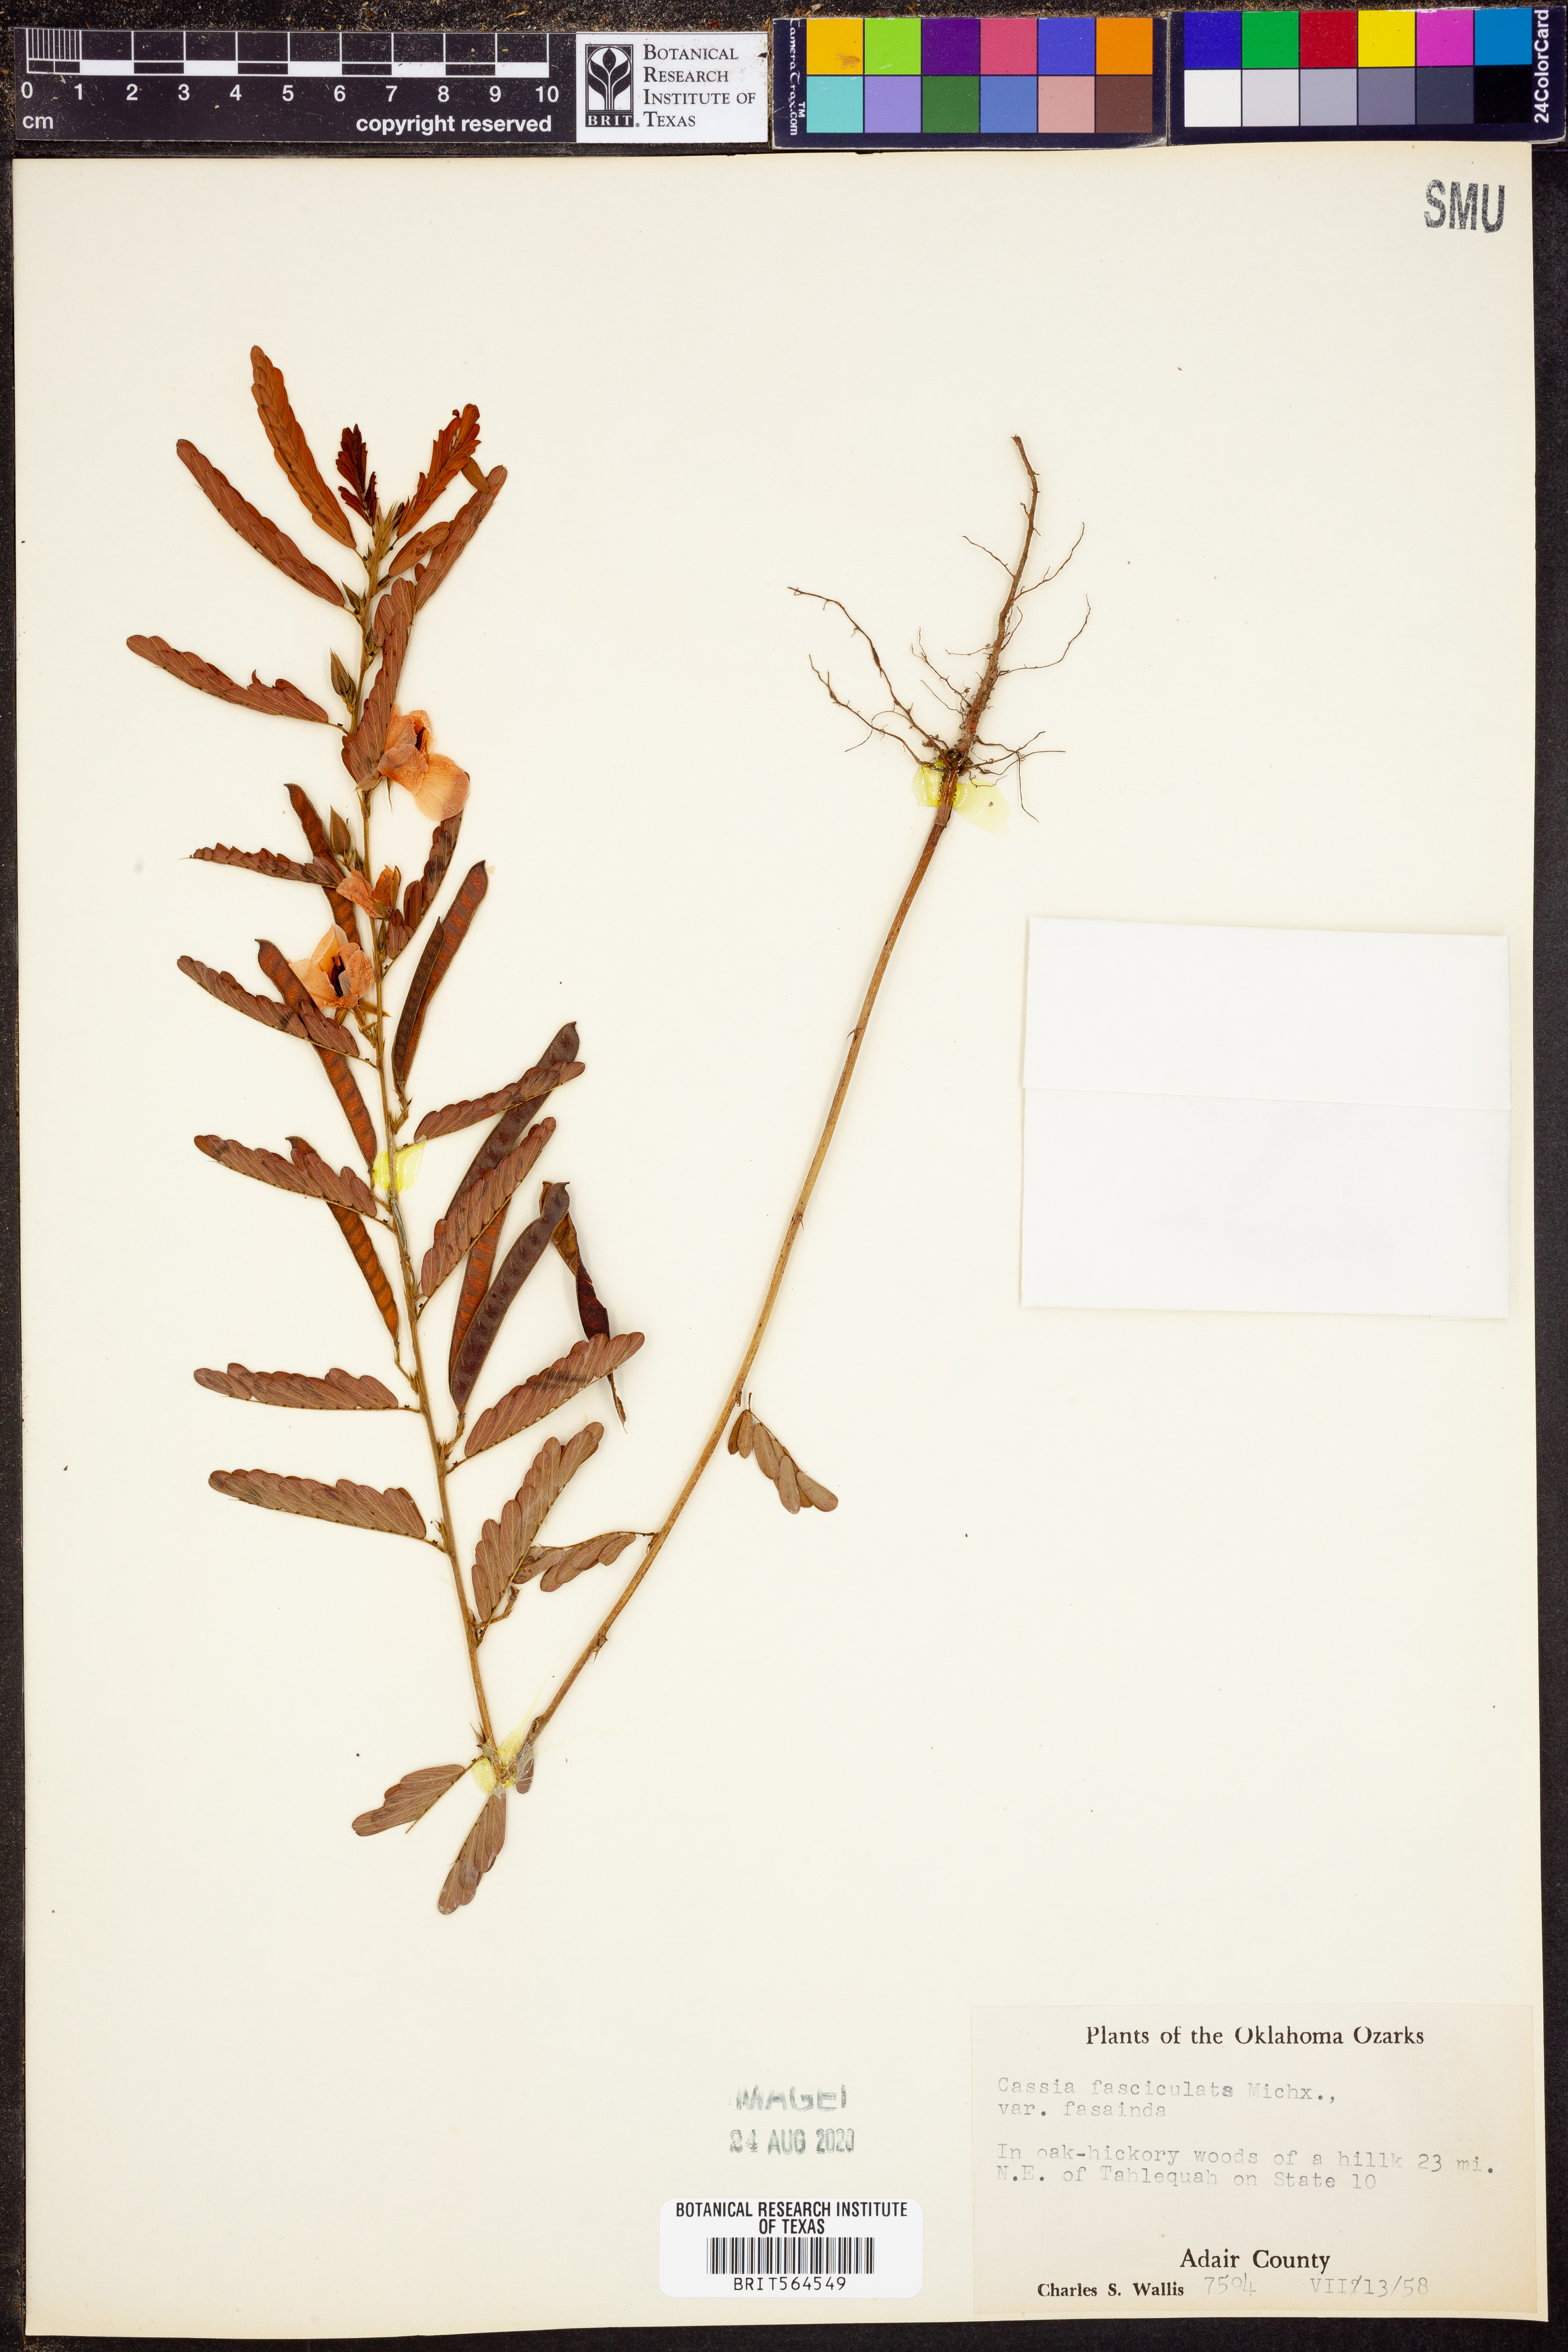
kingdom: Plantae
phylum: Tracheophyta
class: Magnoliopsida
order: Fabales
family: Fabaceae
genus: Chamaecrista
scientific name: Chamaecrista fasciculata
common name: Golden cassia
